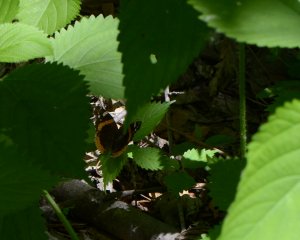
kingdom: Animalia
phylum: Arthropoda
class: Insecta
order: Lepidoptera
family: Nymphalidae
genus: Vanessa
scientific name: Vanessa atalanta
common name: Red Admiral
